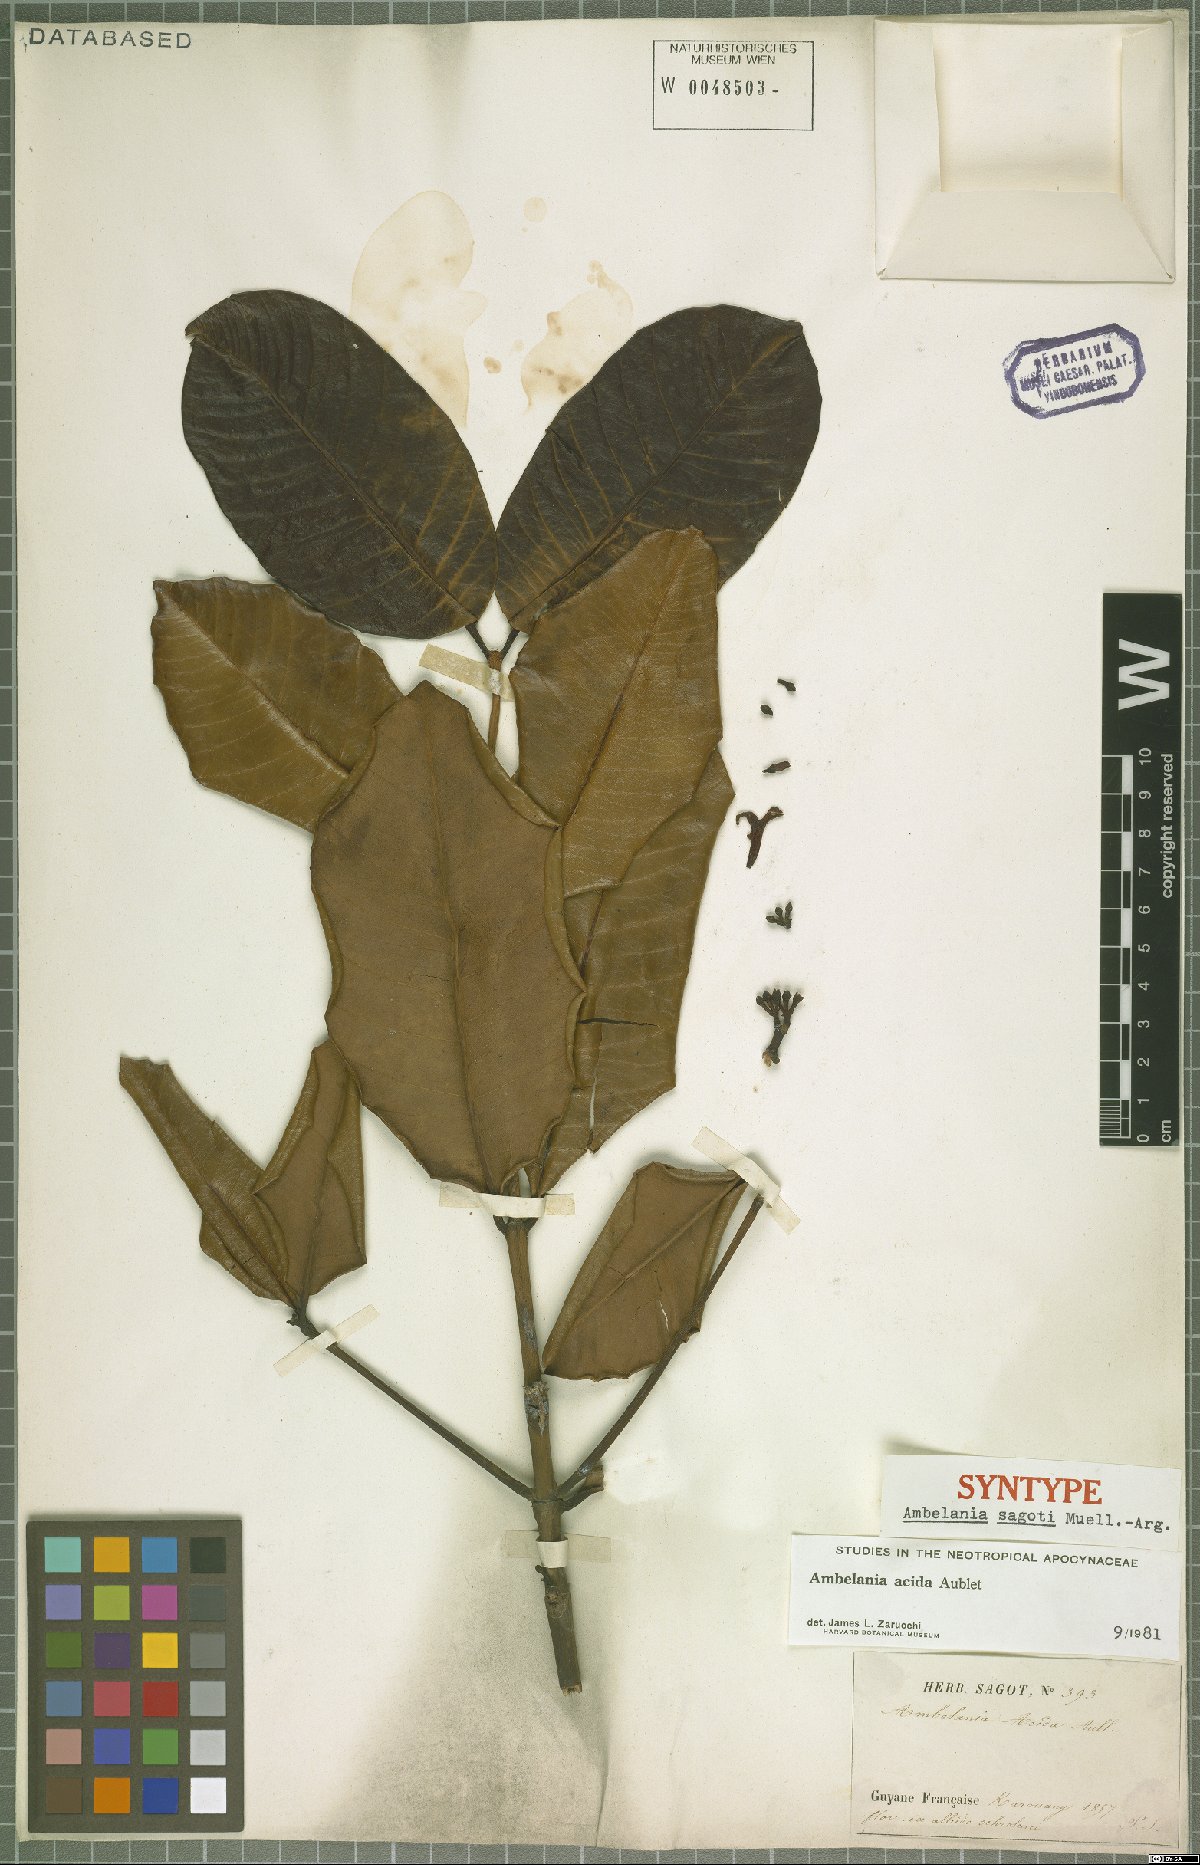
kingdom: Plantae
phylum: Tracheophyta
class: Magnoliopsida
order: Gentianales
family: Apocynaceae
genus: Ambelania
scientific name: Ambelania acida
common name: Bagasse
